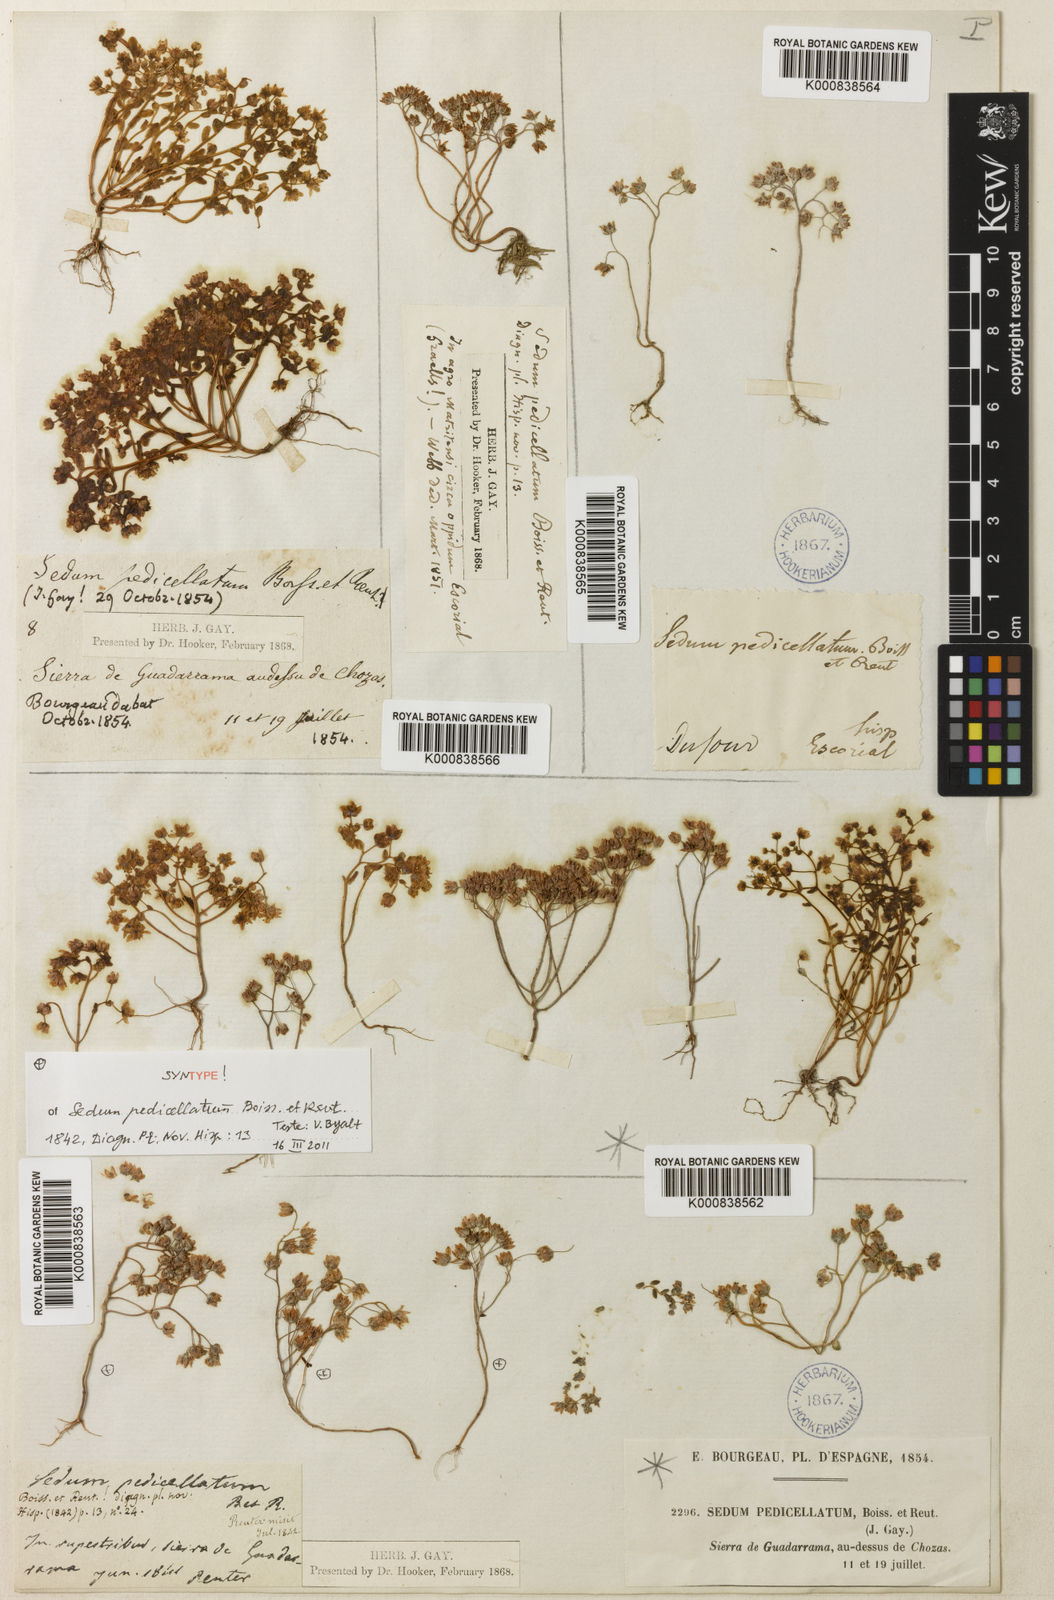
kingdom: Plantae
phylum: Tracheophyta
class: Magnoliopsida
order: Saxifragales
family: Crassulaceae
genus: Sedum
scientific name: Sedum pedicellatum
